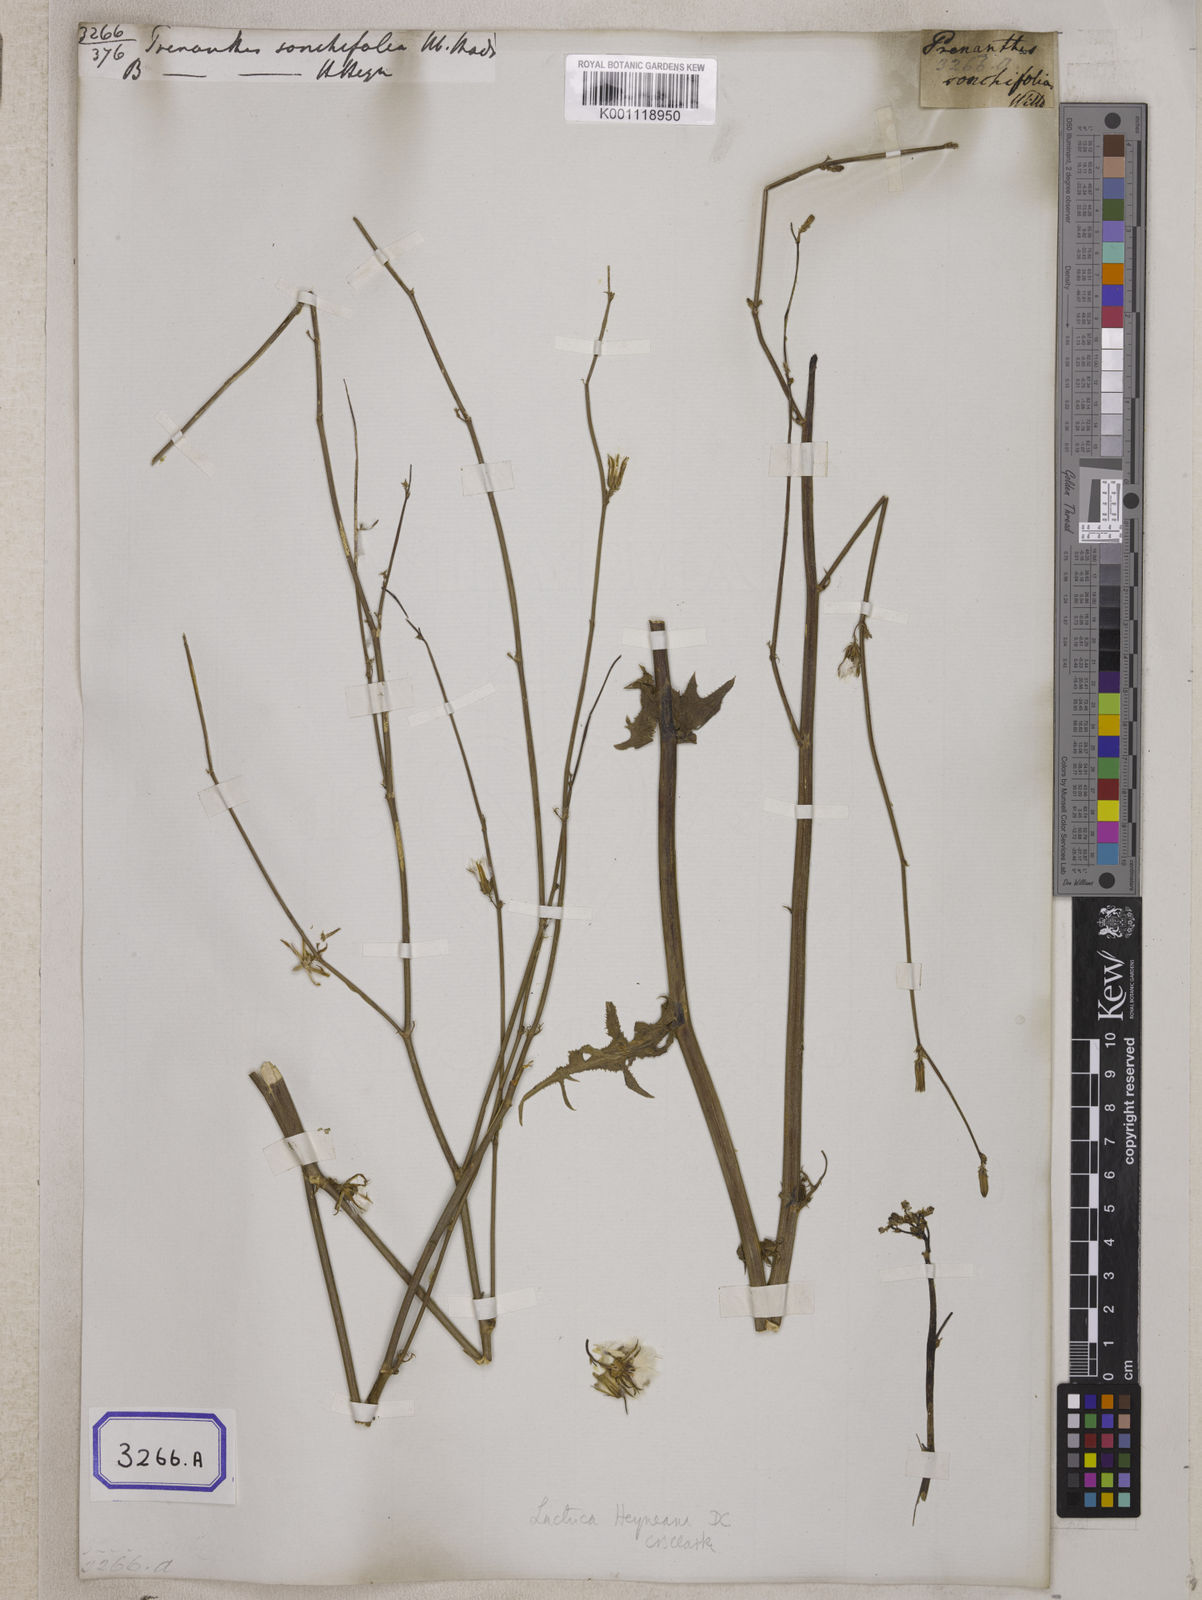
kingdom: Plantae
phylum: Tracheophyta
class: Magnoliopsida
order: Asterales
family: Asteraceae
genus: Prenanthes
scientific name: Prenanthes
